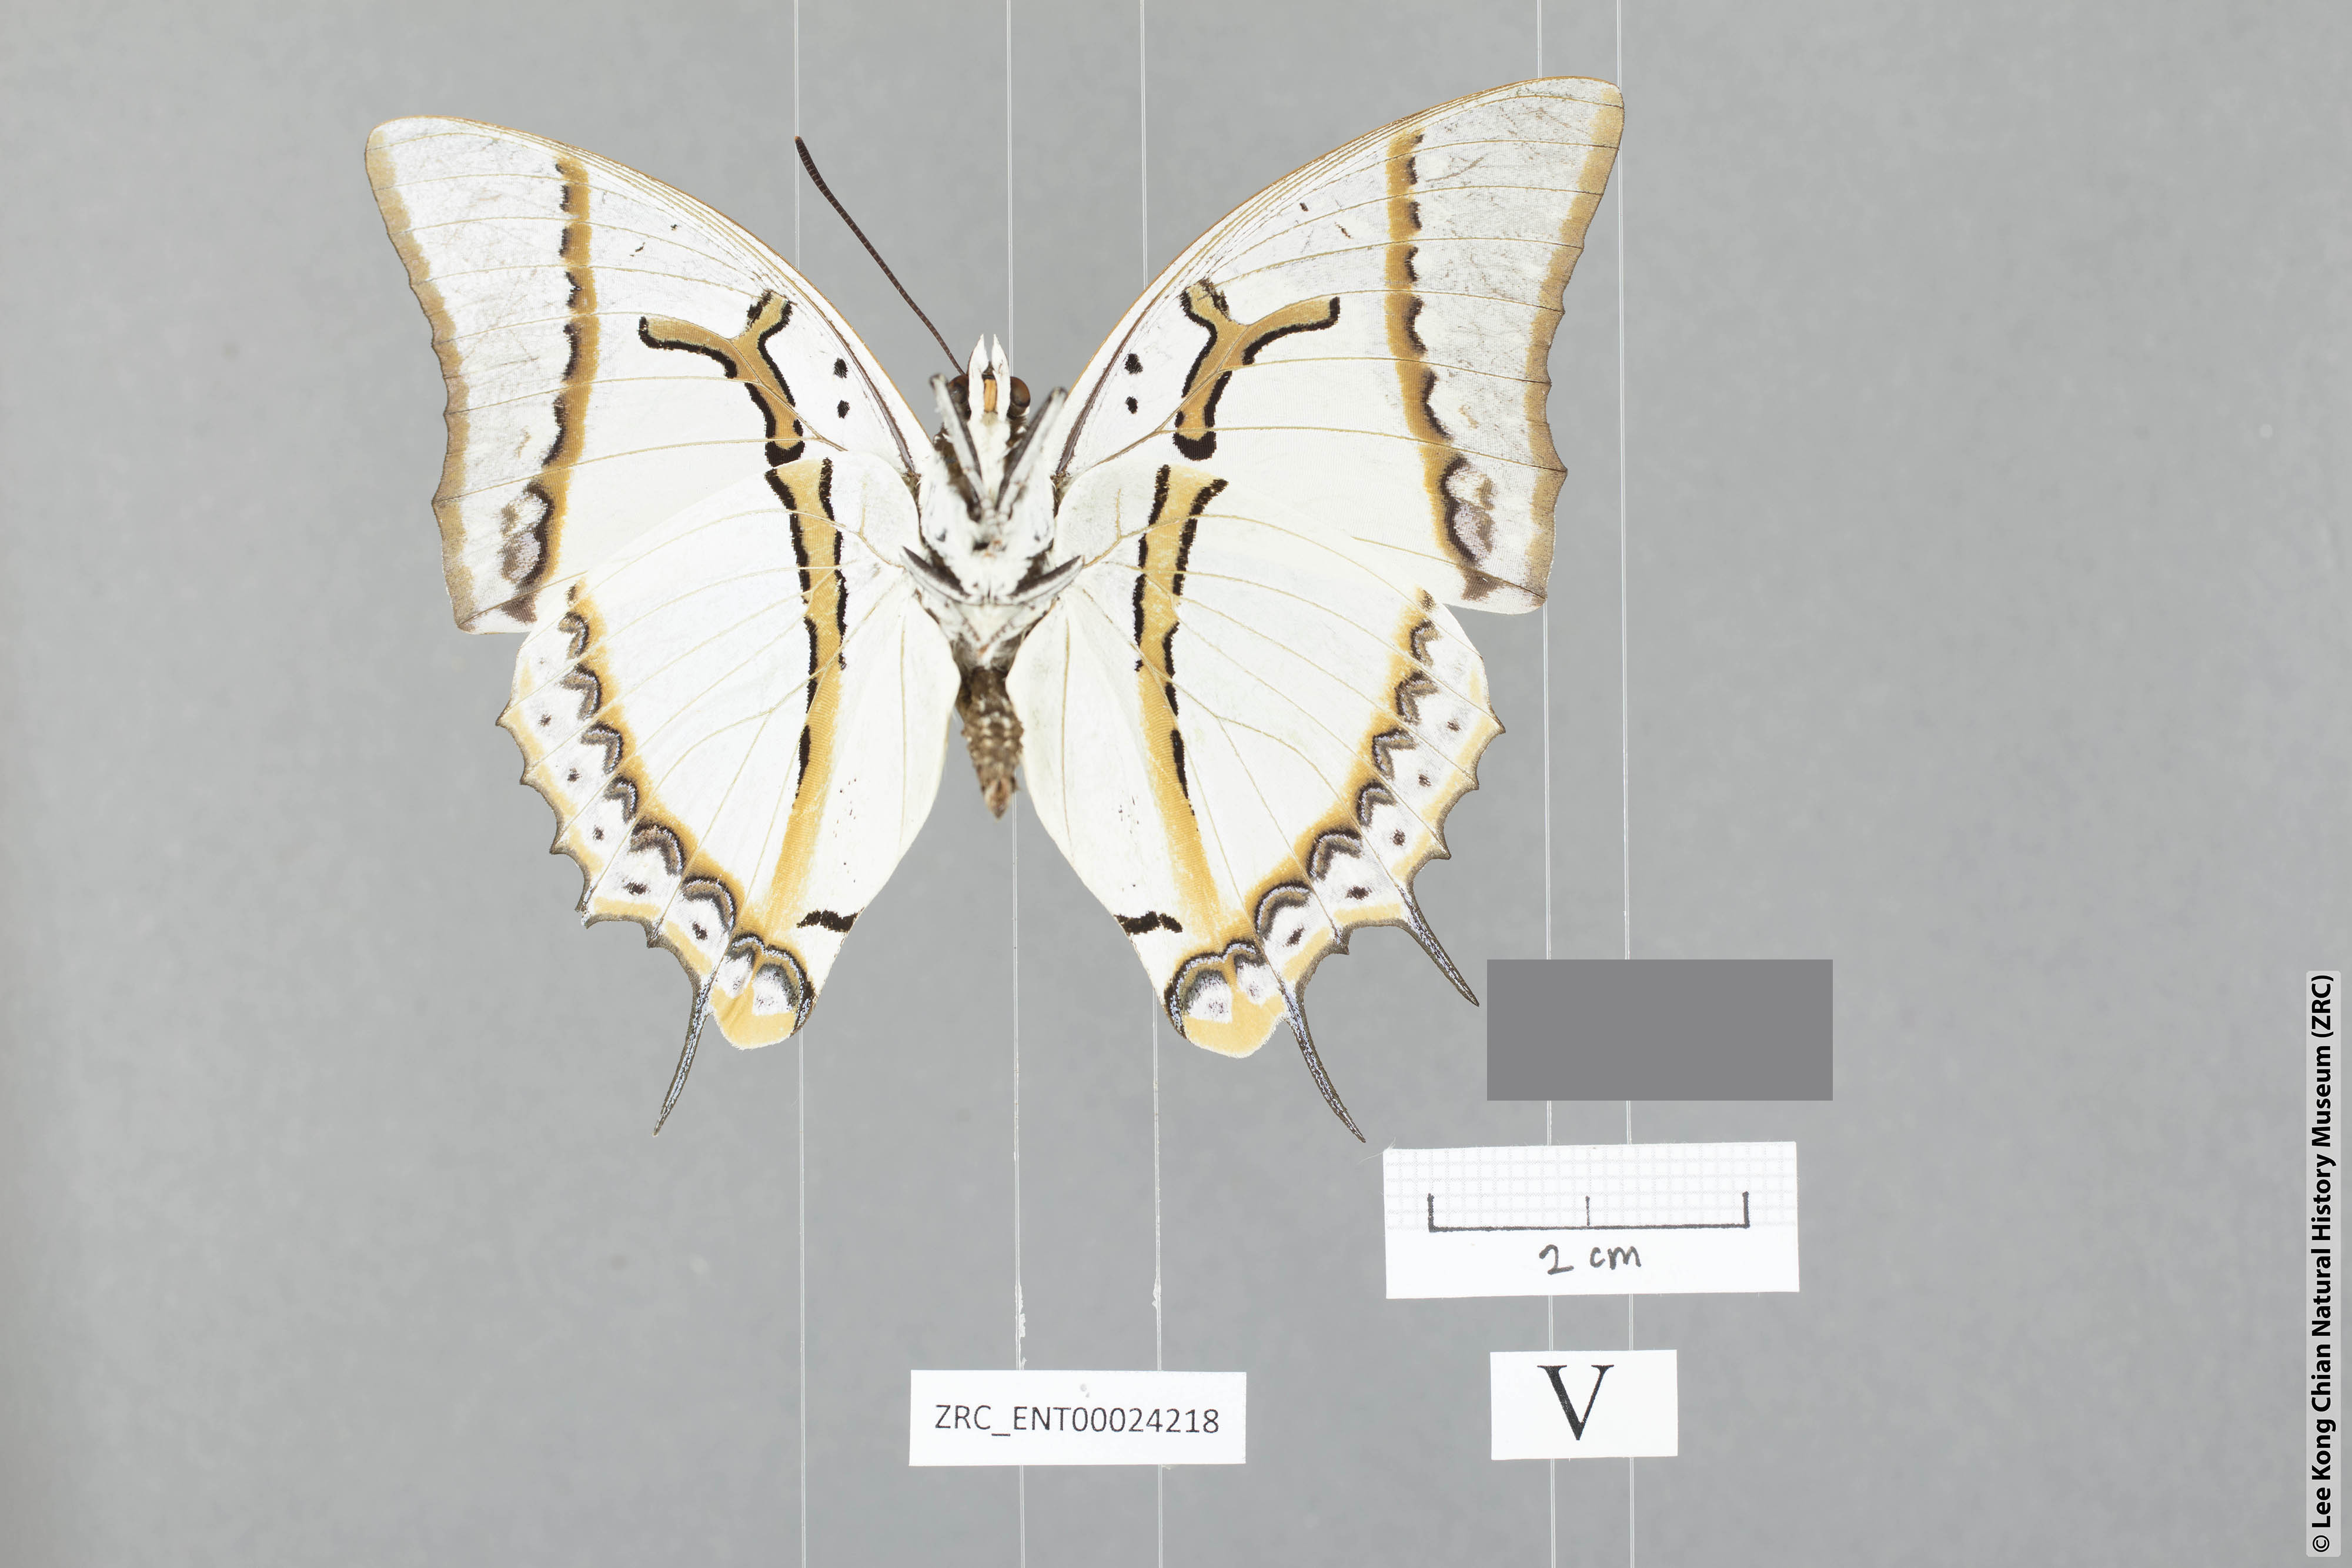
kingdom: Animalia
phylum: Arthropoda
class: Insecta
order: Lepidoptera
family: Nymphalidae
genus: Polyura
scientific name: Polyura eudamippus
